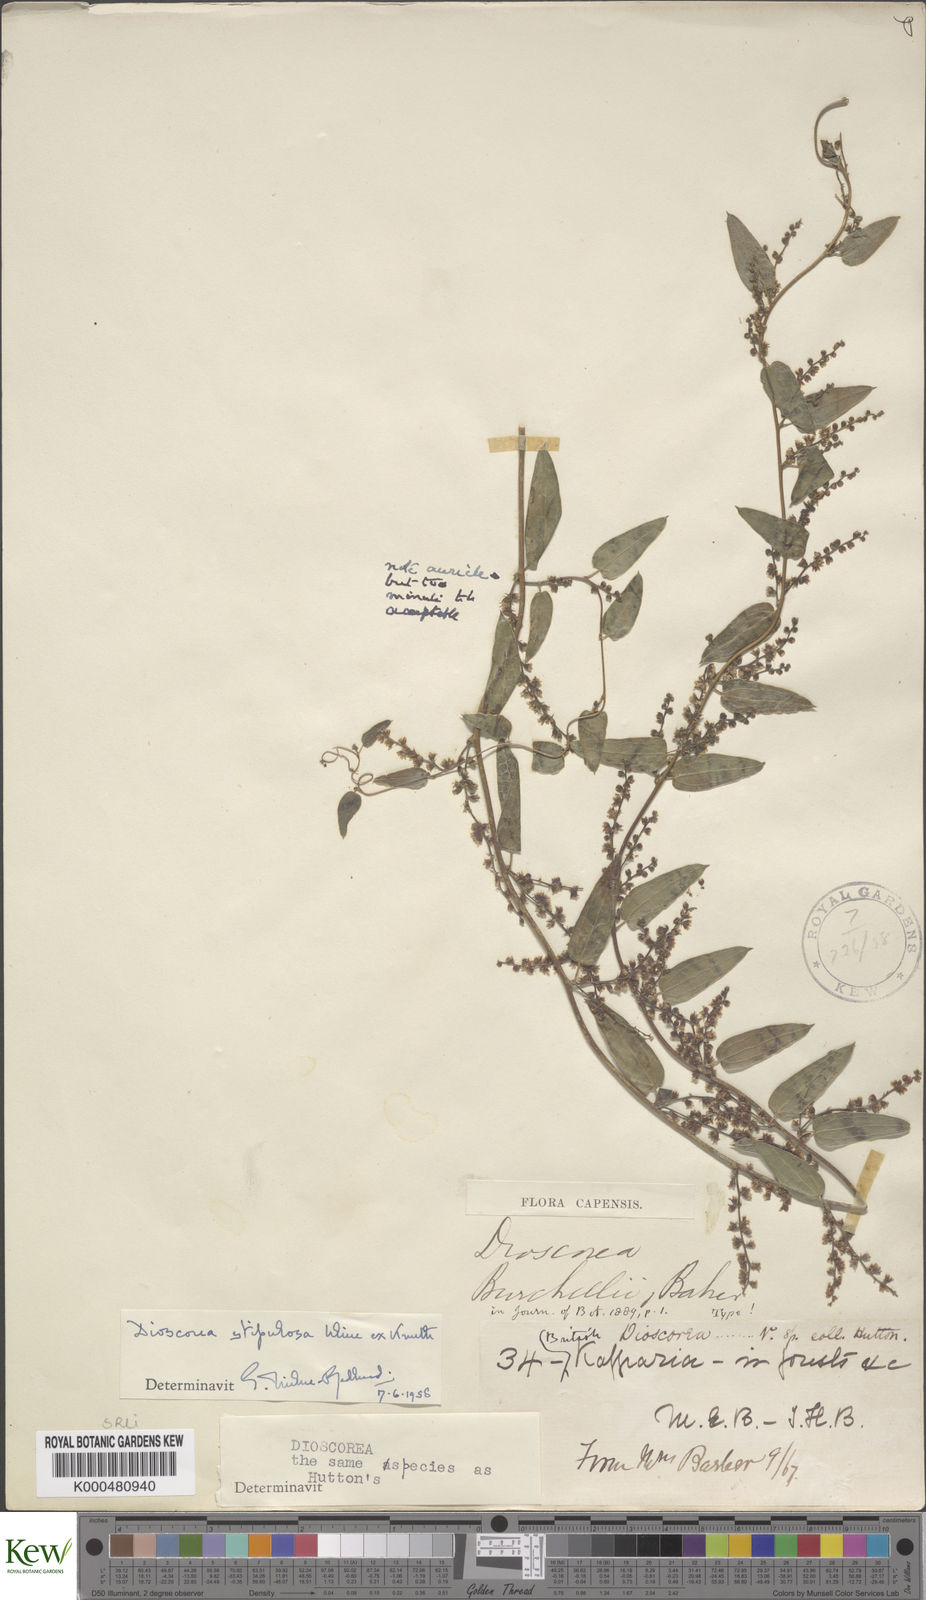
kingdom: Plantae
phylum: Tracheophyta
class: Liliopsida
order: Dioscoreales
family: Dioscoreaceae
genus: Dioscorea
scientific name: Dioscorea stipulosa
